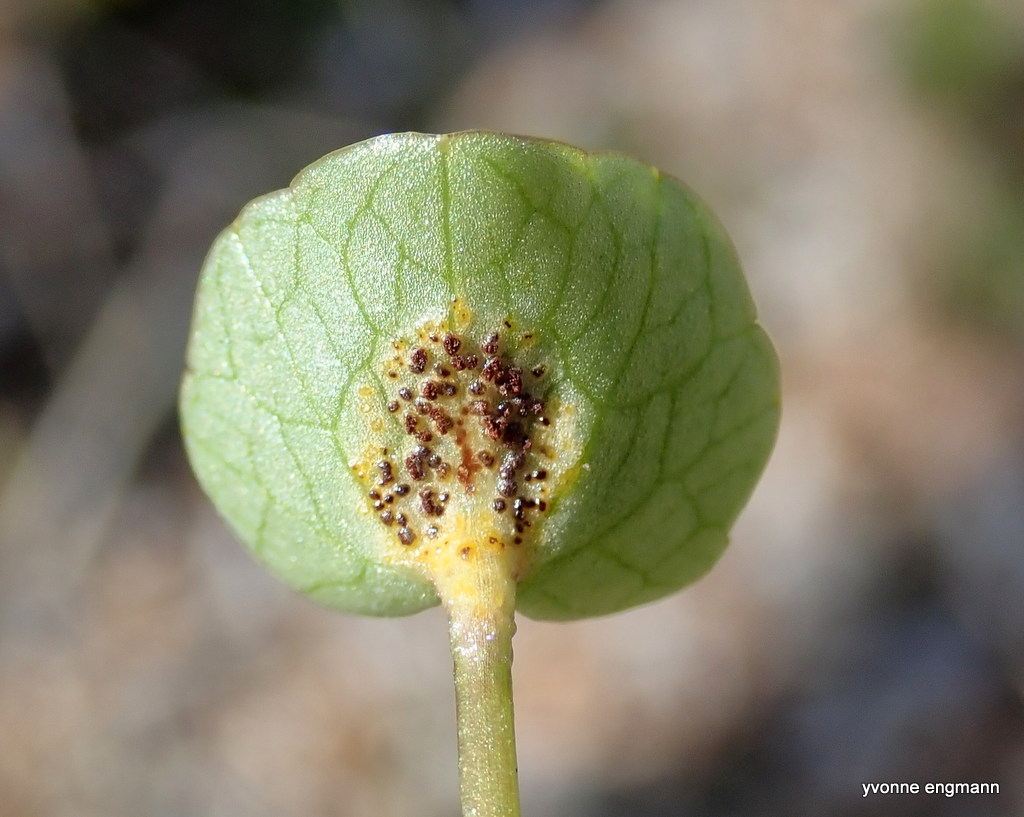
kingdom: Fungi
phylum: Basidiomycota
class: Pucciniomycetes
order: Pucciniales
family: Pucciniaceae
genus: Uromyces
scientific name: Uromyces ficariae
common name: vorterod-encellerust
